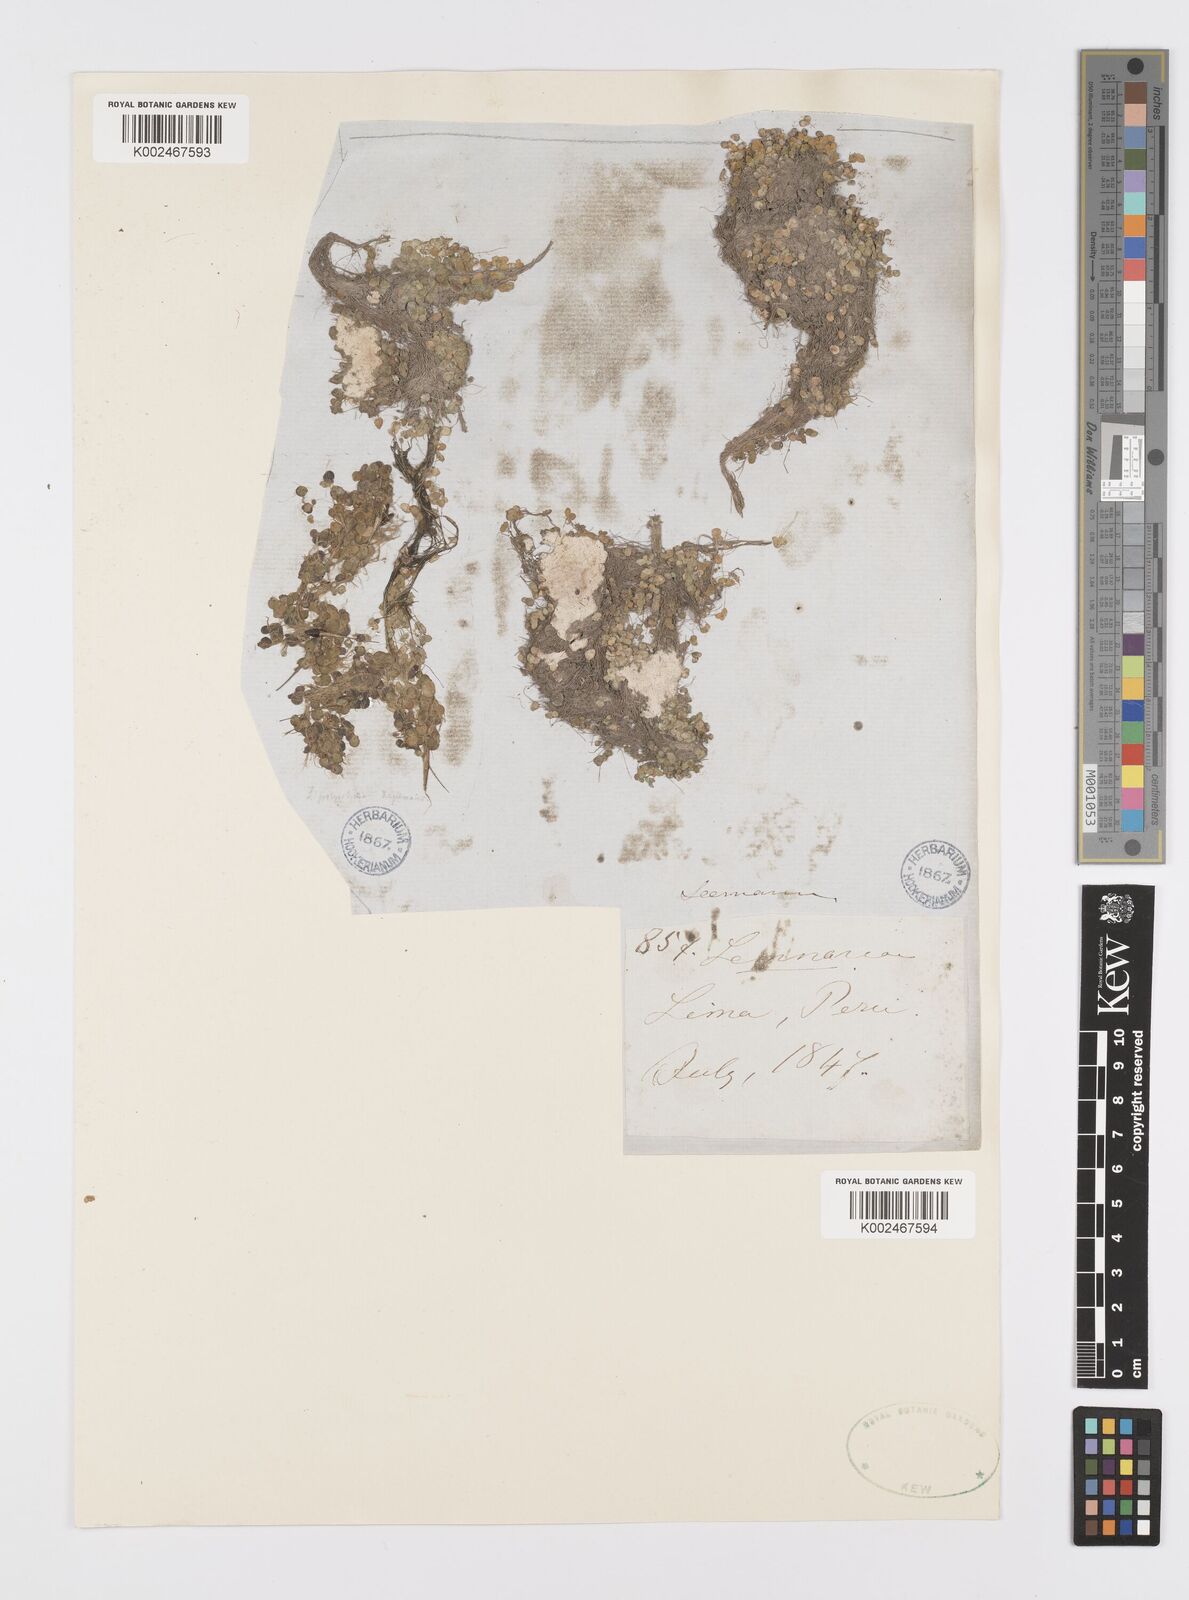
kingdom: Plantae
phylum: Tracheophyta
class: Liliopsida
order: Alismatales
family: Araceae
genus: Spirodela
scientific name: Spirodela polyrhiza
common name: Great duckweed
